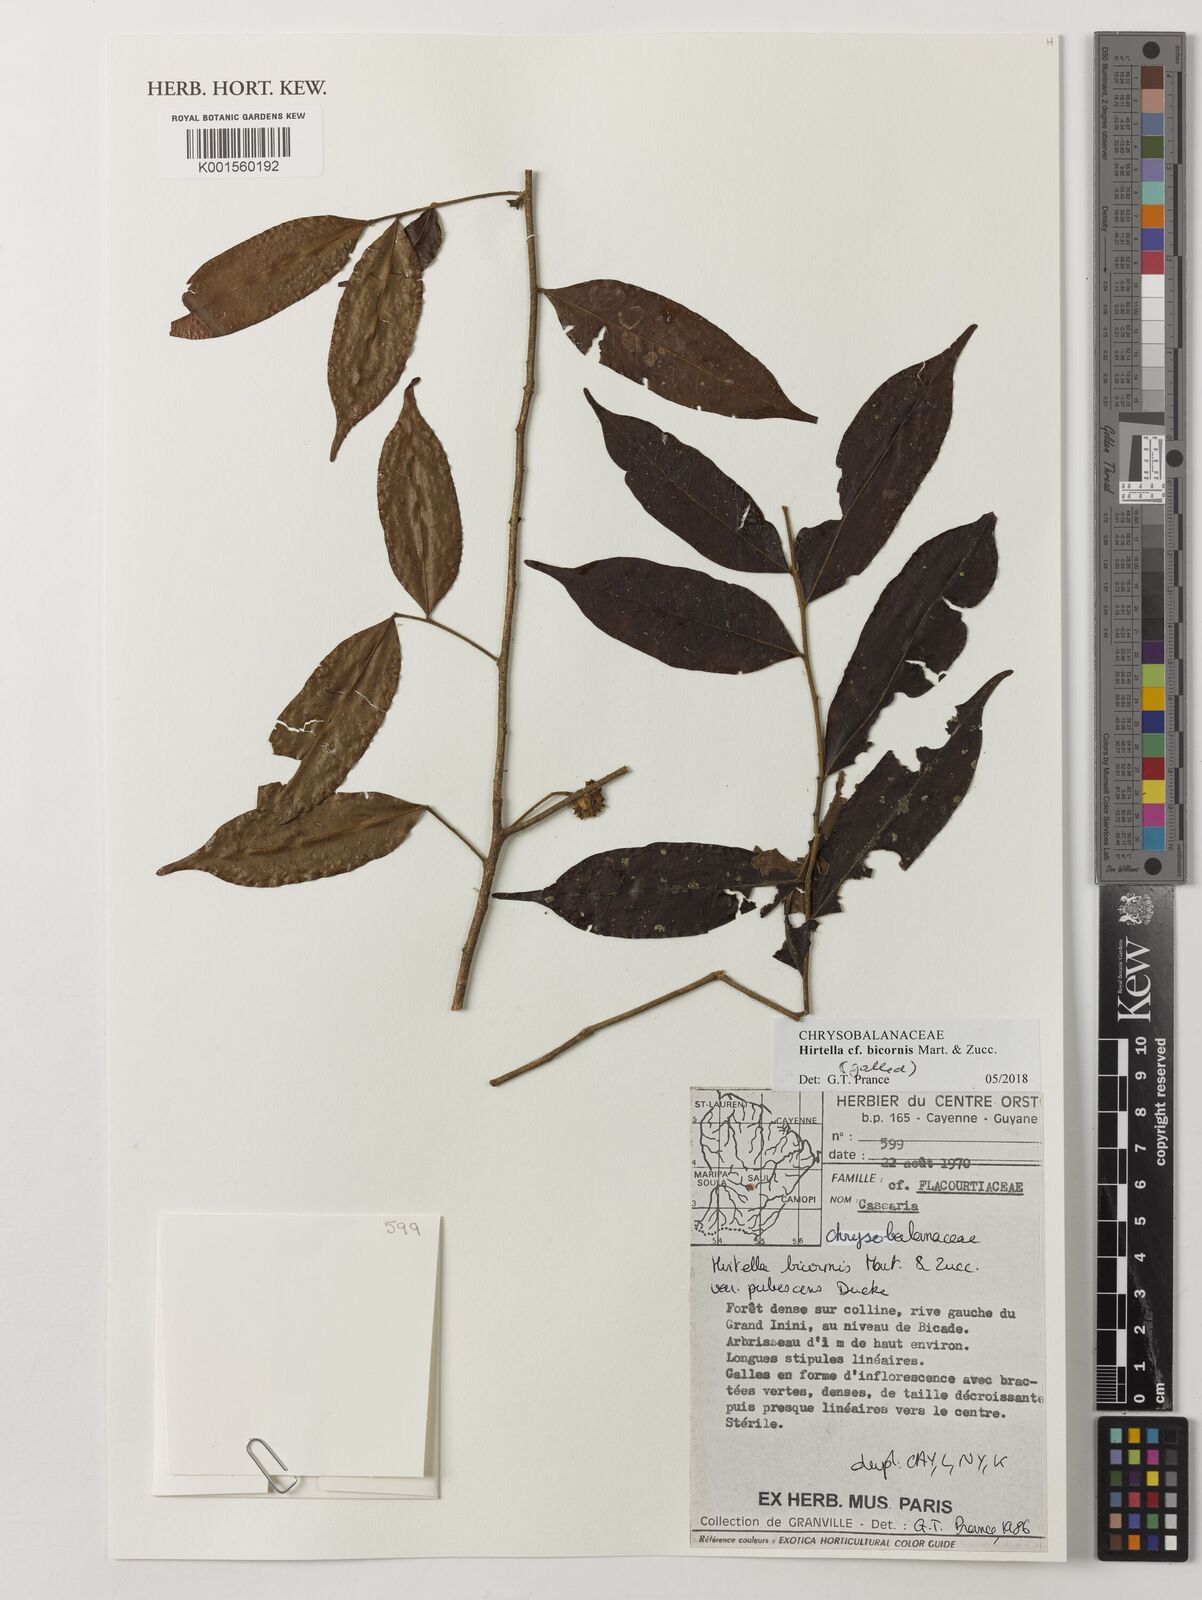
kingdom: Plantae
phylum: Tracheophyta
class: Magnoliopsida
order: Malpighiales
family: Chrysobalanaceae
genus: Hirtella
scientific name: Hirtella bicornis
